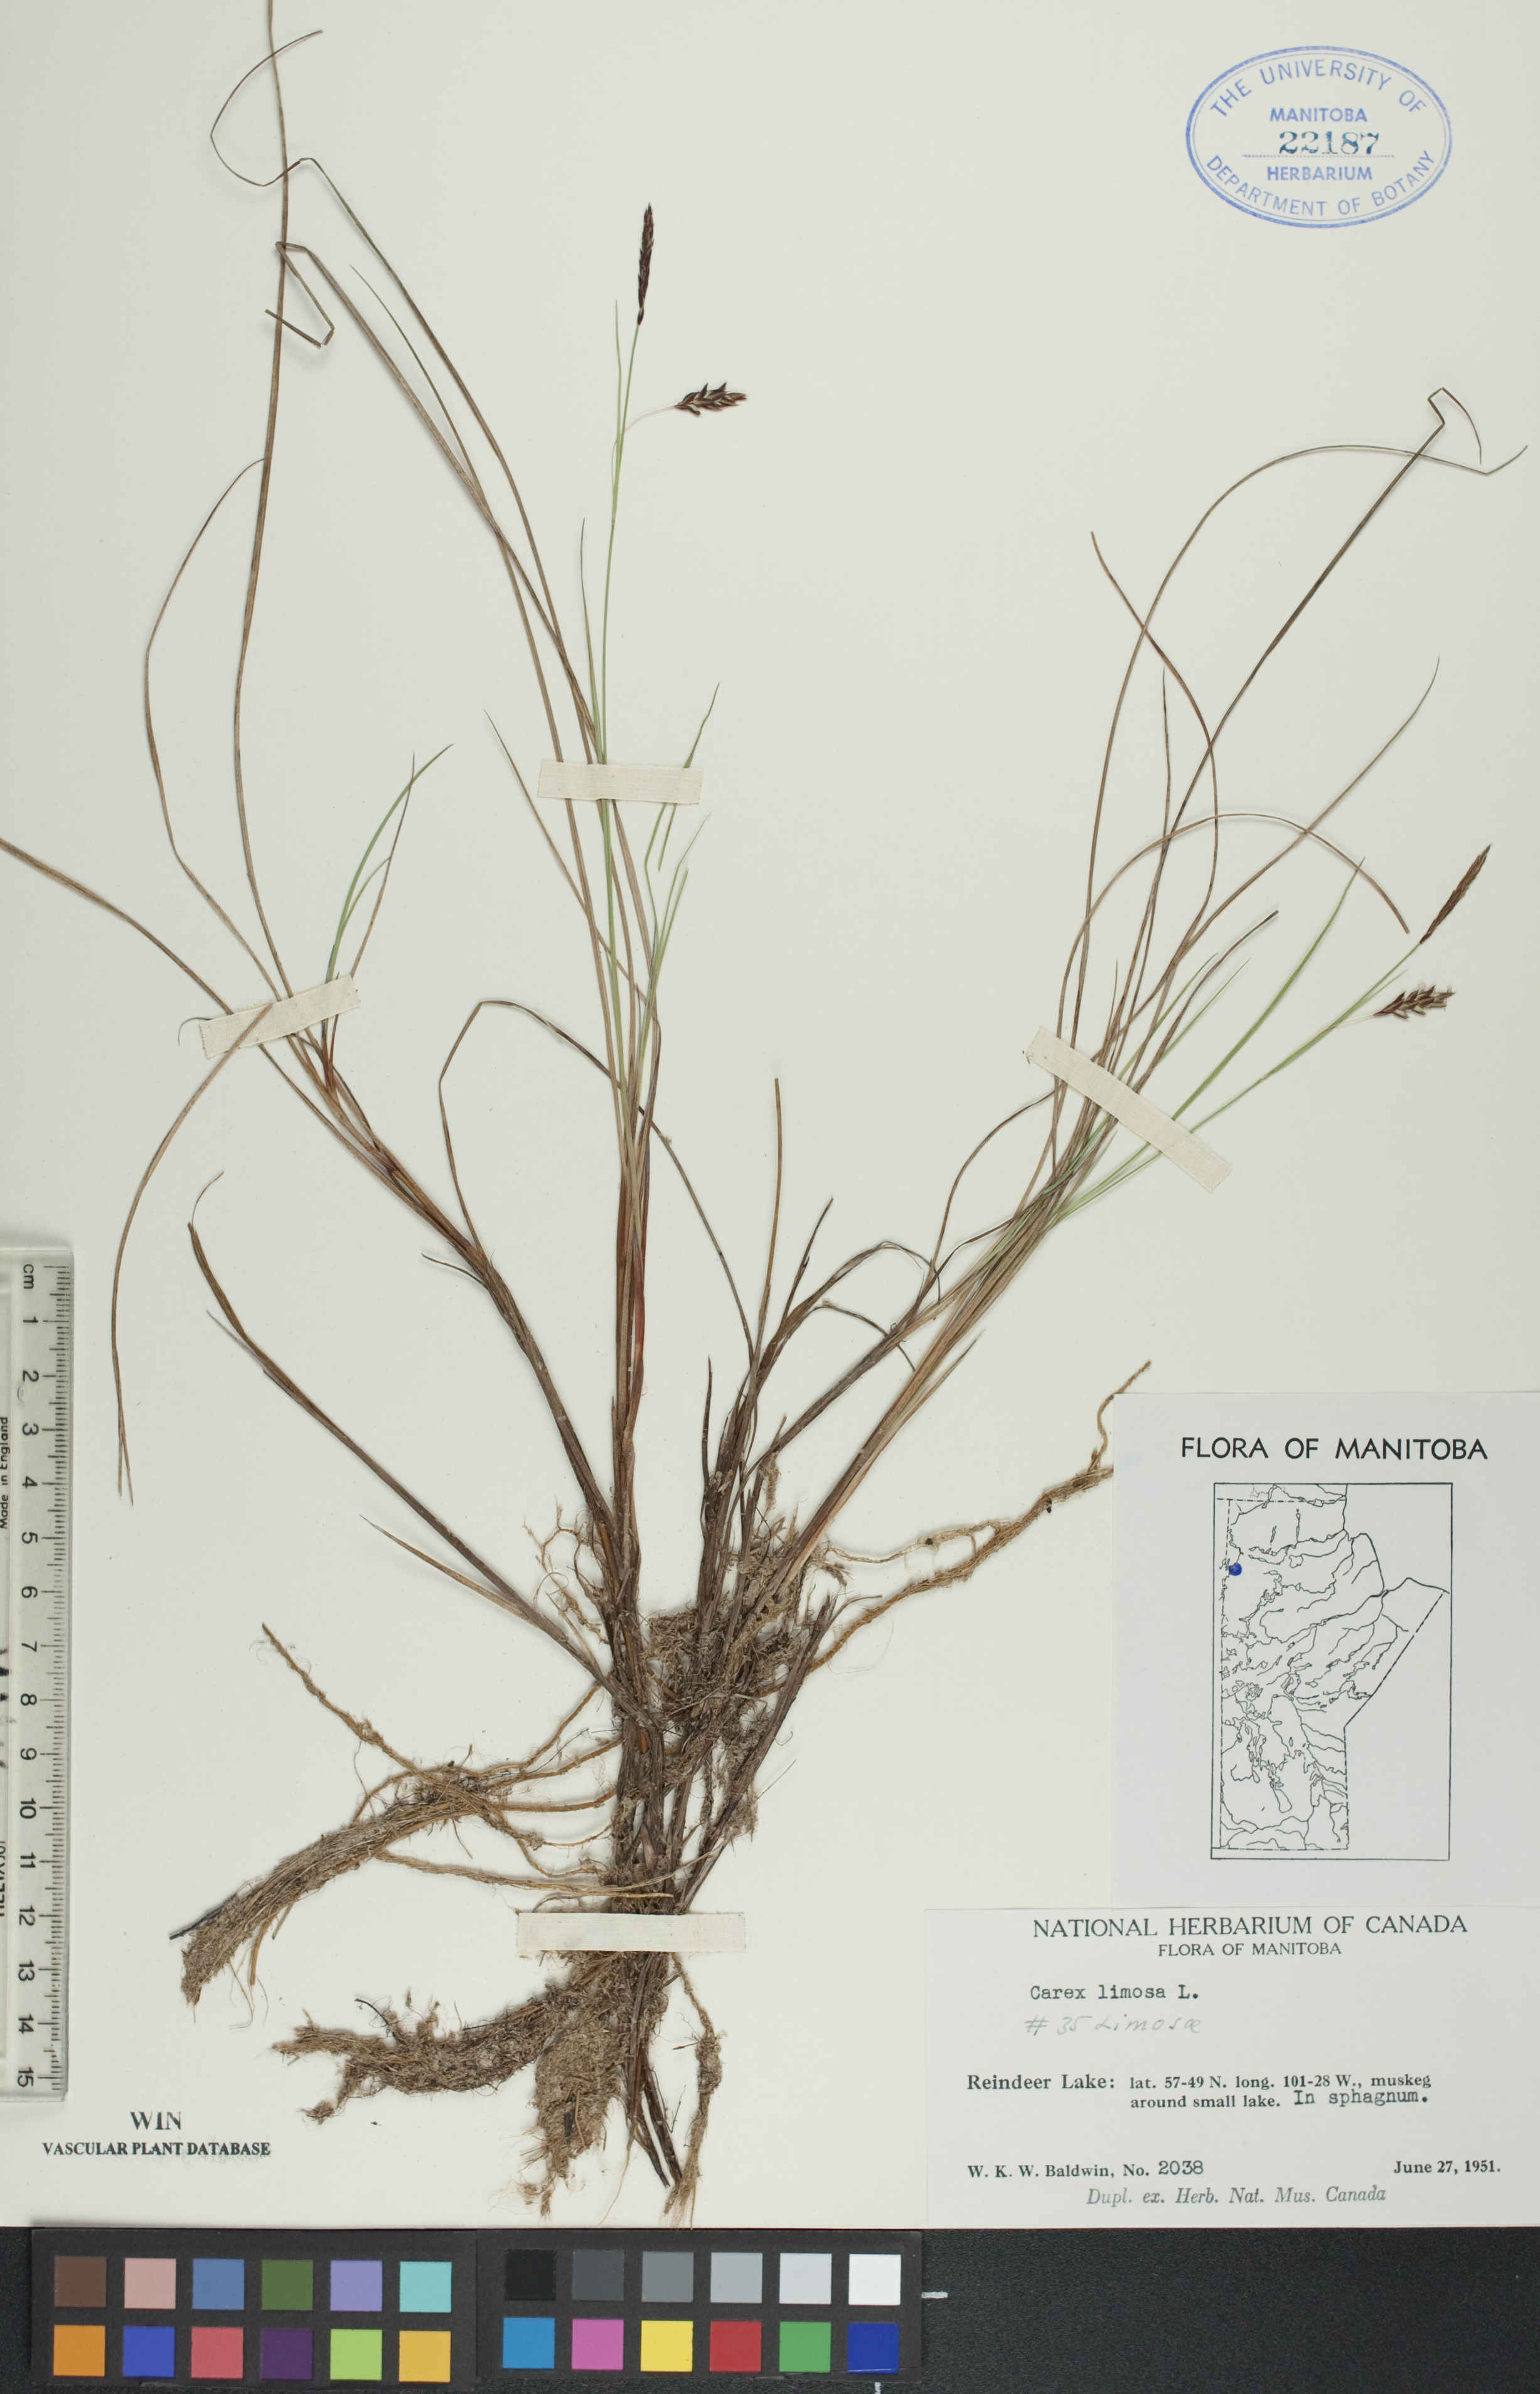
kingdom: Plantae
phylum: Tracheophyta
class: Liliopsida
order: Poales
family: Cyperaceae
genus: Carex
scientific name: Carex limosa
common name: Bog sedge
